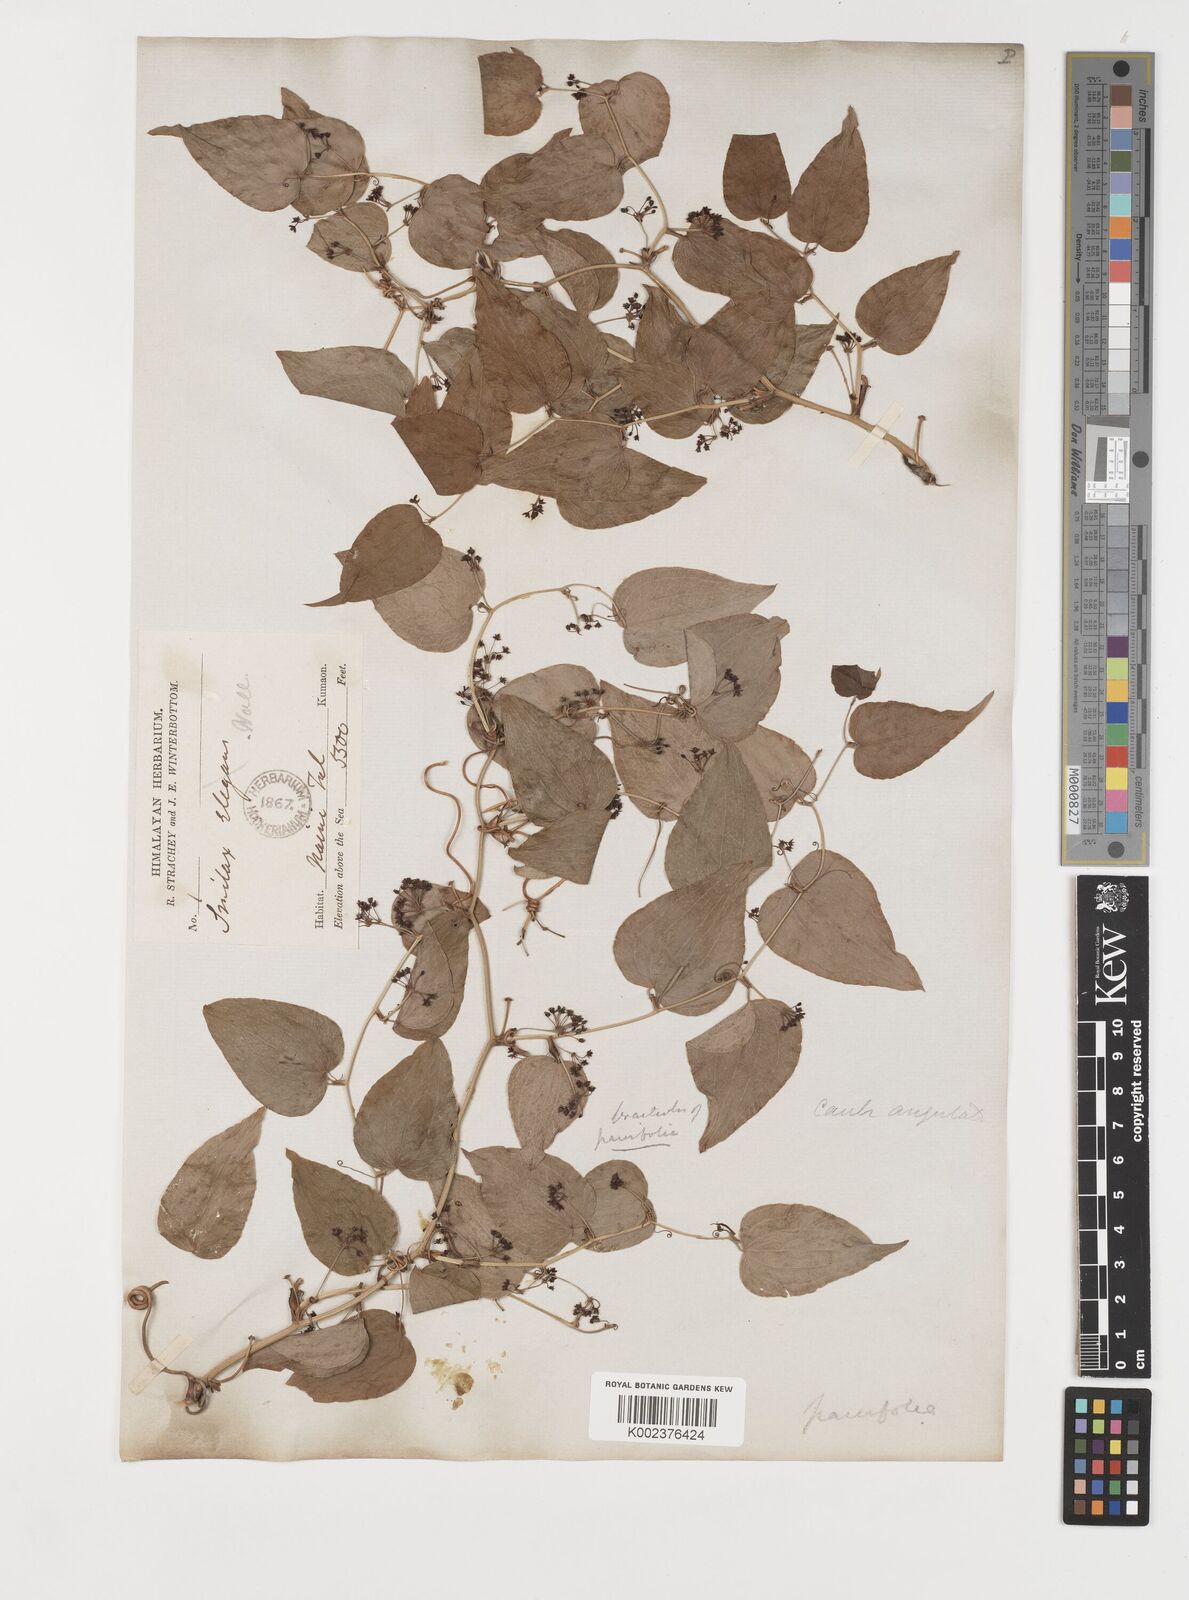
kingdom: Plantae
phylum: Tracheophyta
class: Liliopsida
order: Liliales
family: Smilacaceae
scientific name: Smilacaceae
